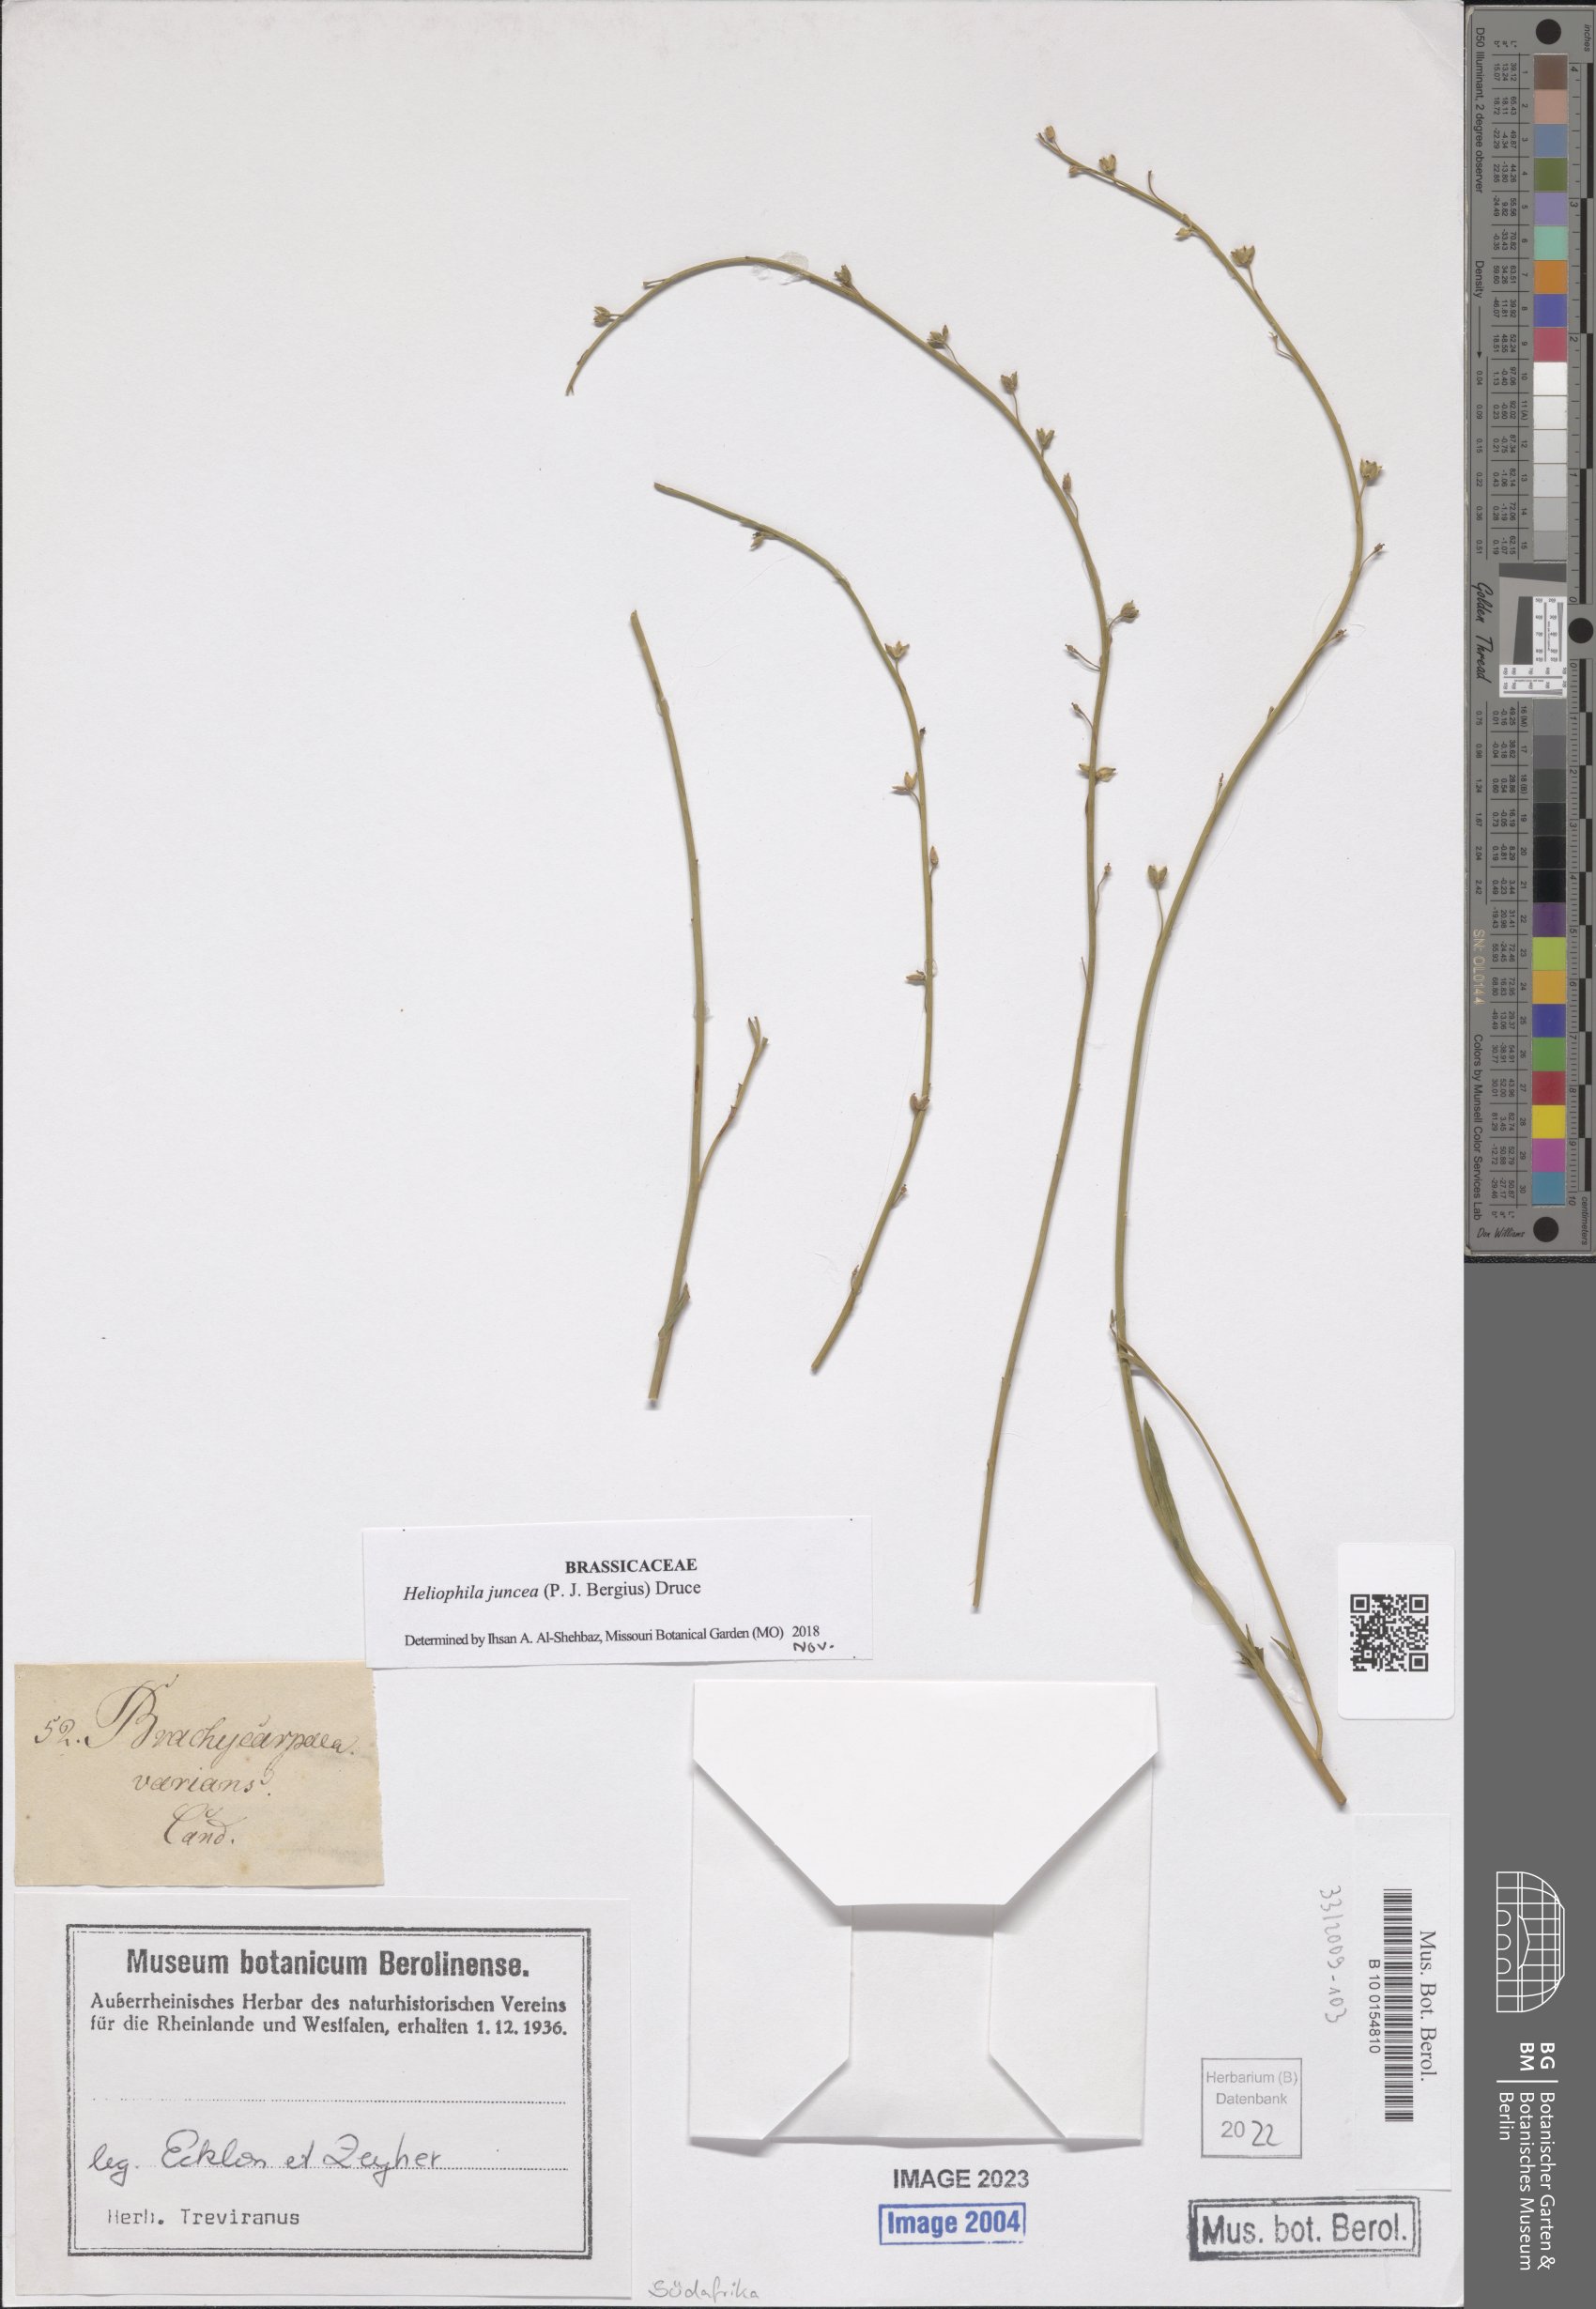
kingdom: Plantae
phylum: Tracheophyta
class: Magnoliopsida
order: Brassicales
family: Brassicaceae
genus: Heliophila
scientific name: Heliophila juncea
